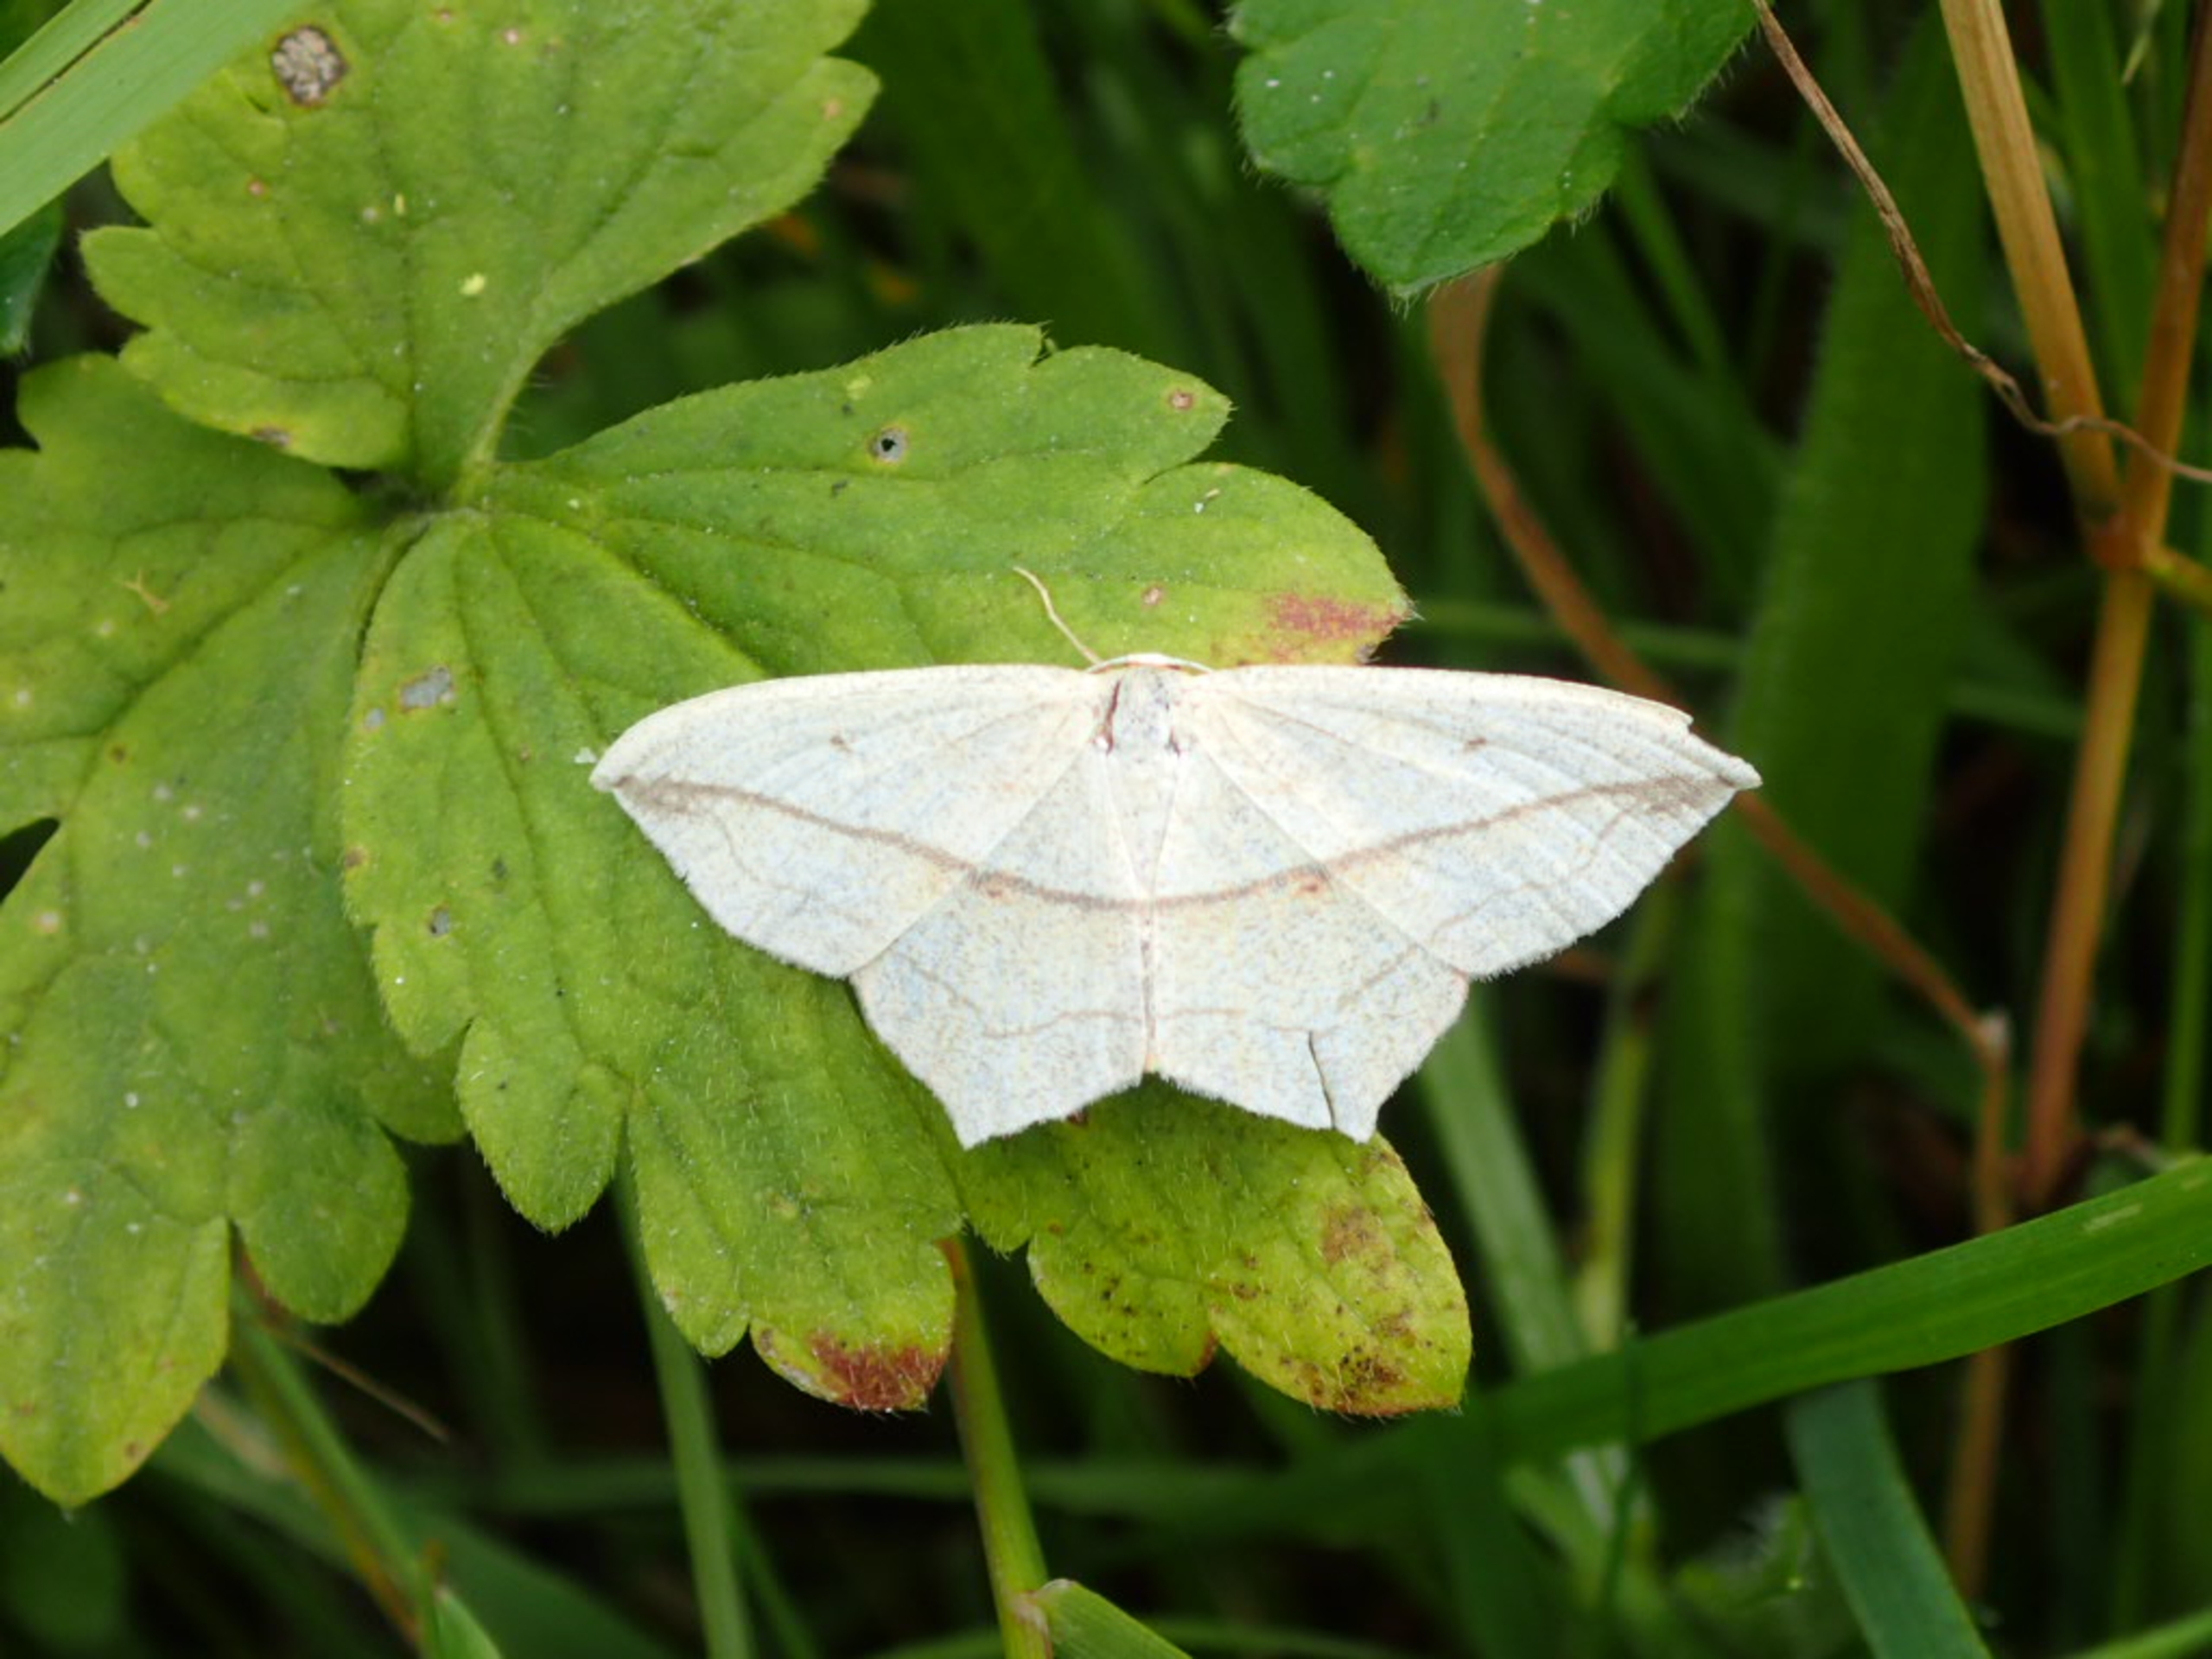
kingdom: Animalia
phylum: Arthropoda
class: Insecta
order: Lepidoptera
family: Geometridae
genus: Timandra
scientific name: Timandra comae
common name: Gul syremåler
